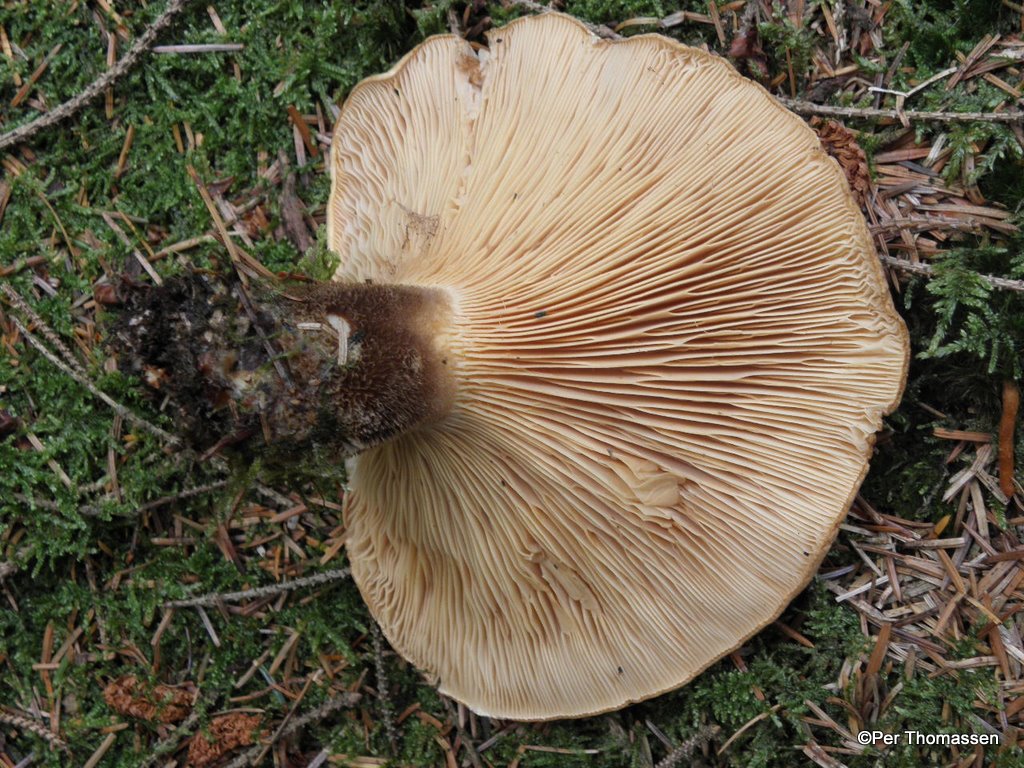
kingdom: Fungi
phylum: Basidiomycota
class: Agaricomycetes
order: Boletales
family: Tapinellaceae
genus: Tapinella
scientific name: Tapinella atrotomentosa
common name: sortfiltet viftesvamp
